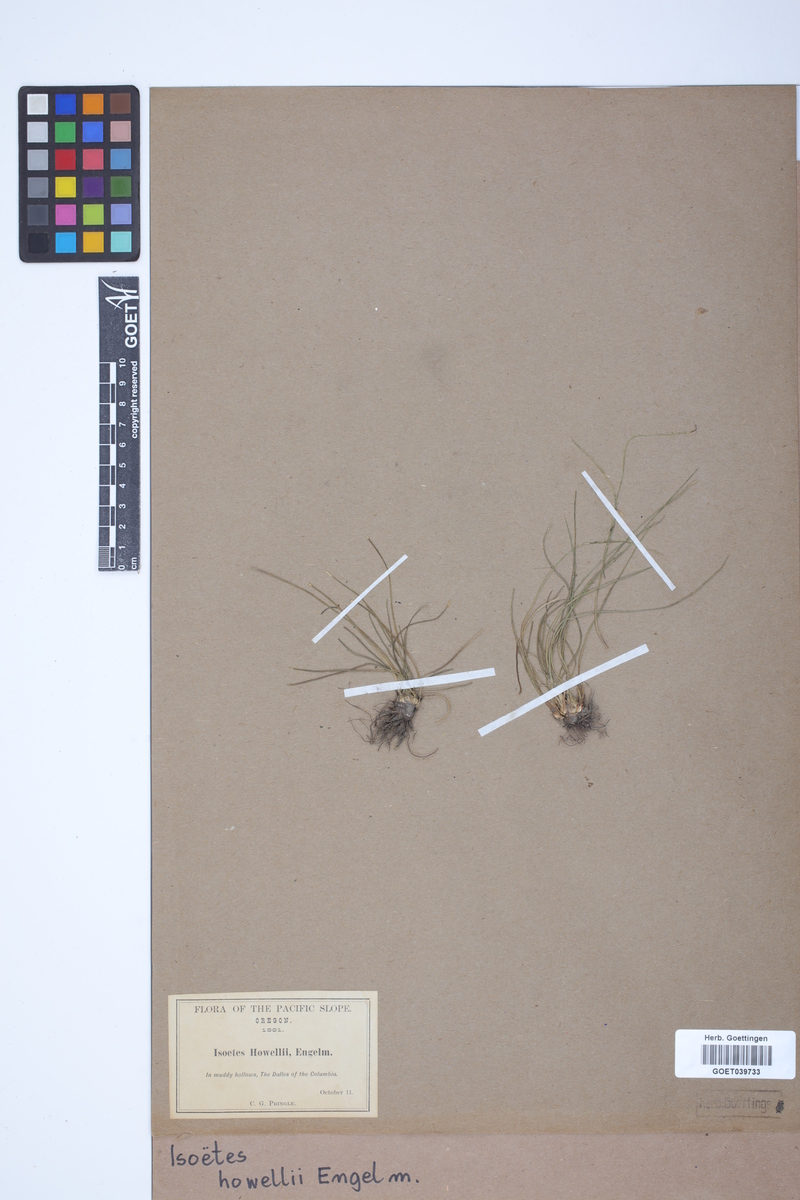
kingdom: Plantae
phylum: Tracheophyta
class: Lycopodiopsida
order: Isoetales
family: Isoetaceae
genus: Isoetes
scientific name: Isoetes howellii
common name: Howell's quillwort
